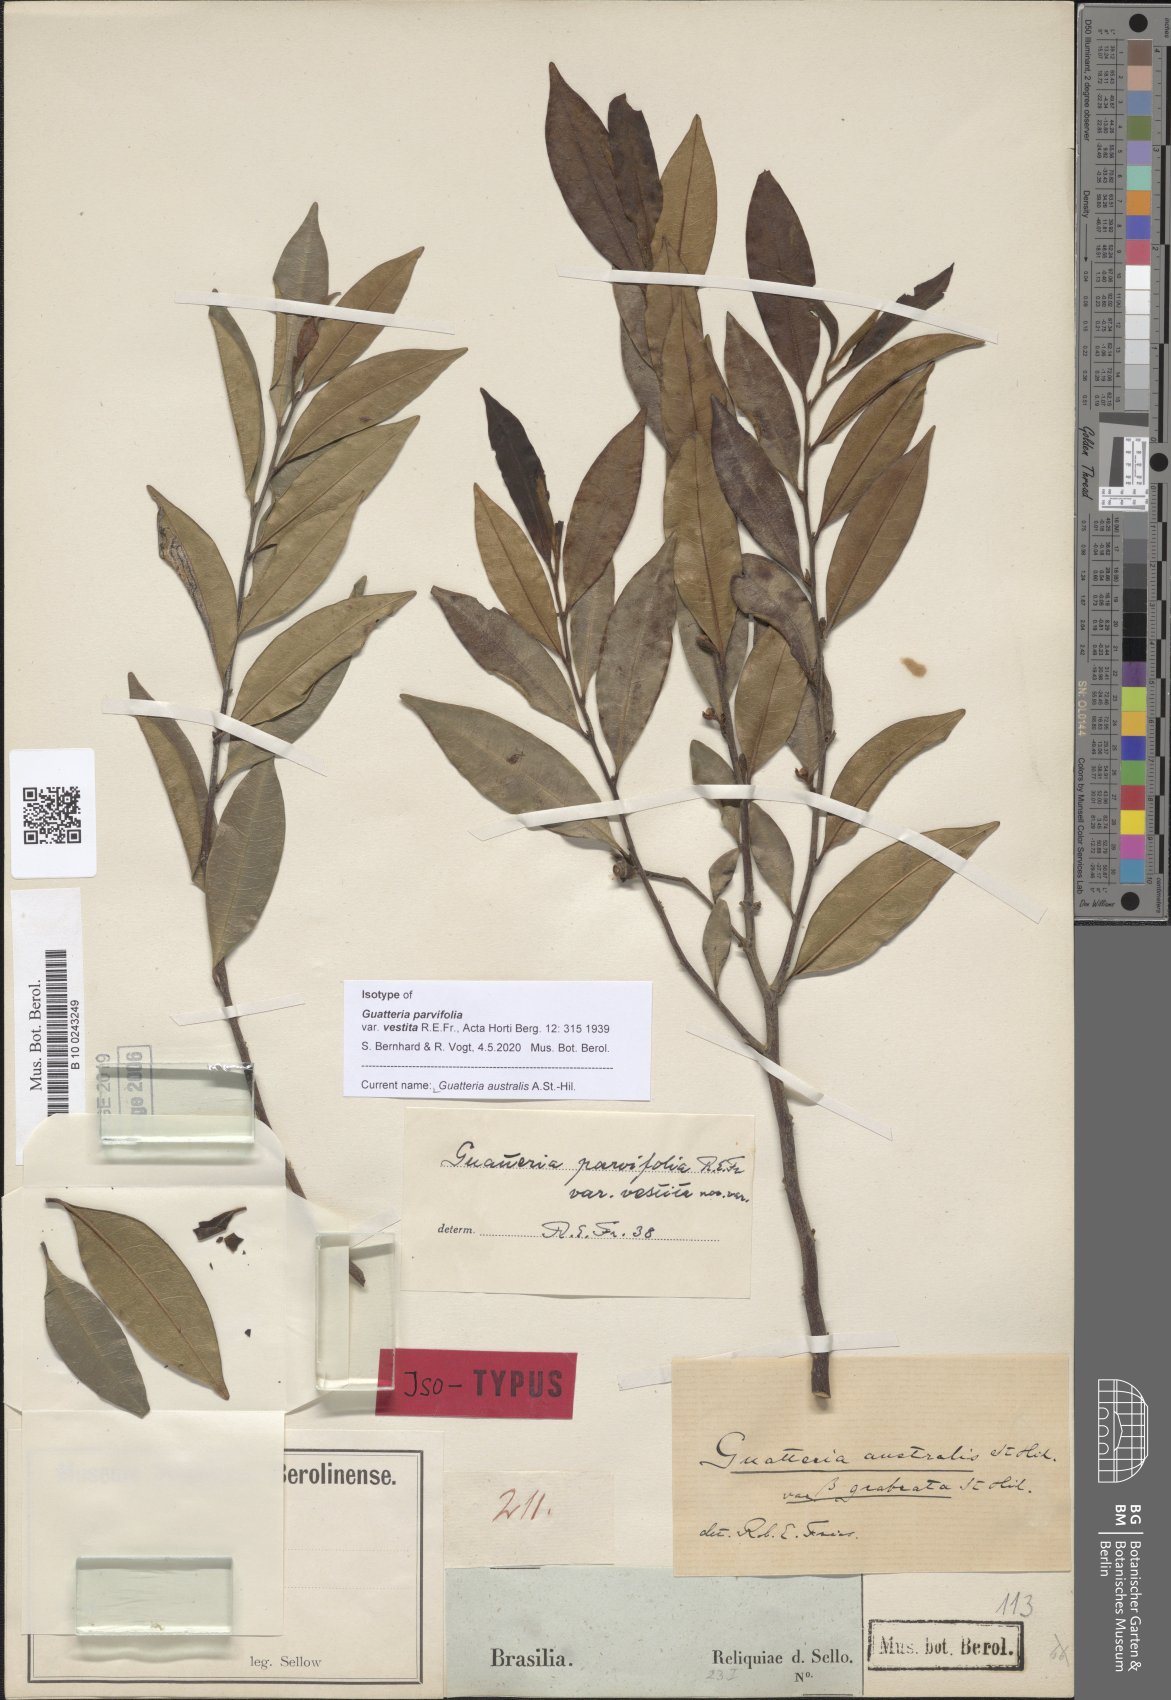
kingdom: Plantae
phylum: Tracheophyta
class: Magnoliopsida
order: Magnoliales
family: Annonaceae
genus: Guatteria
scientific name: Guatteria australis
